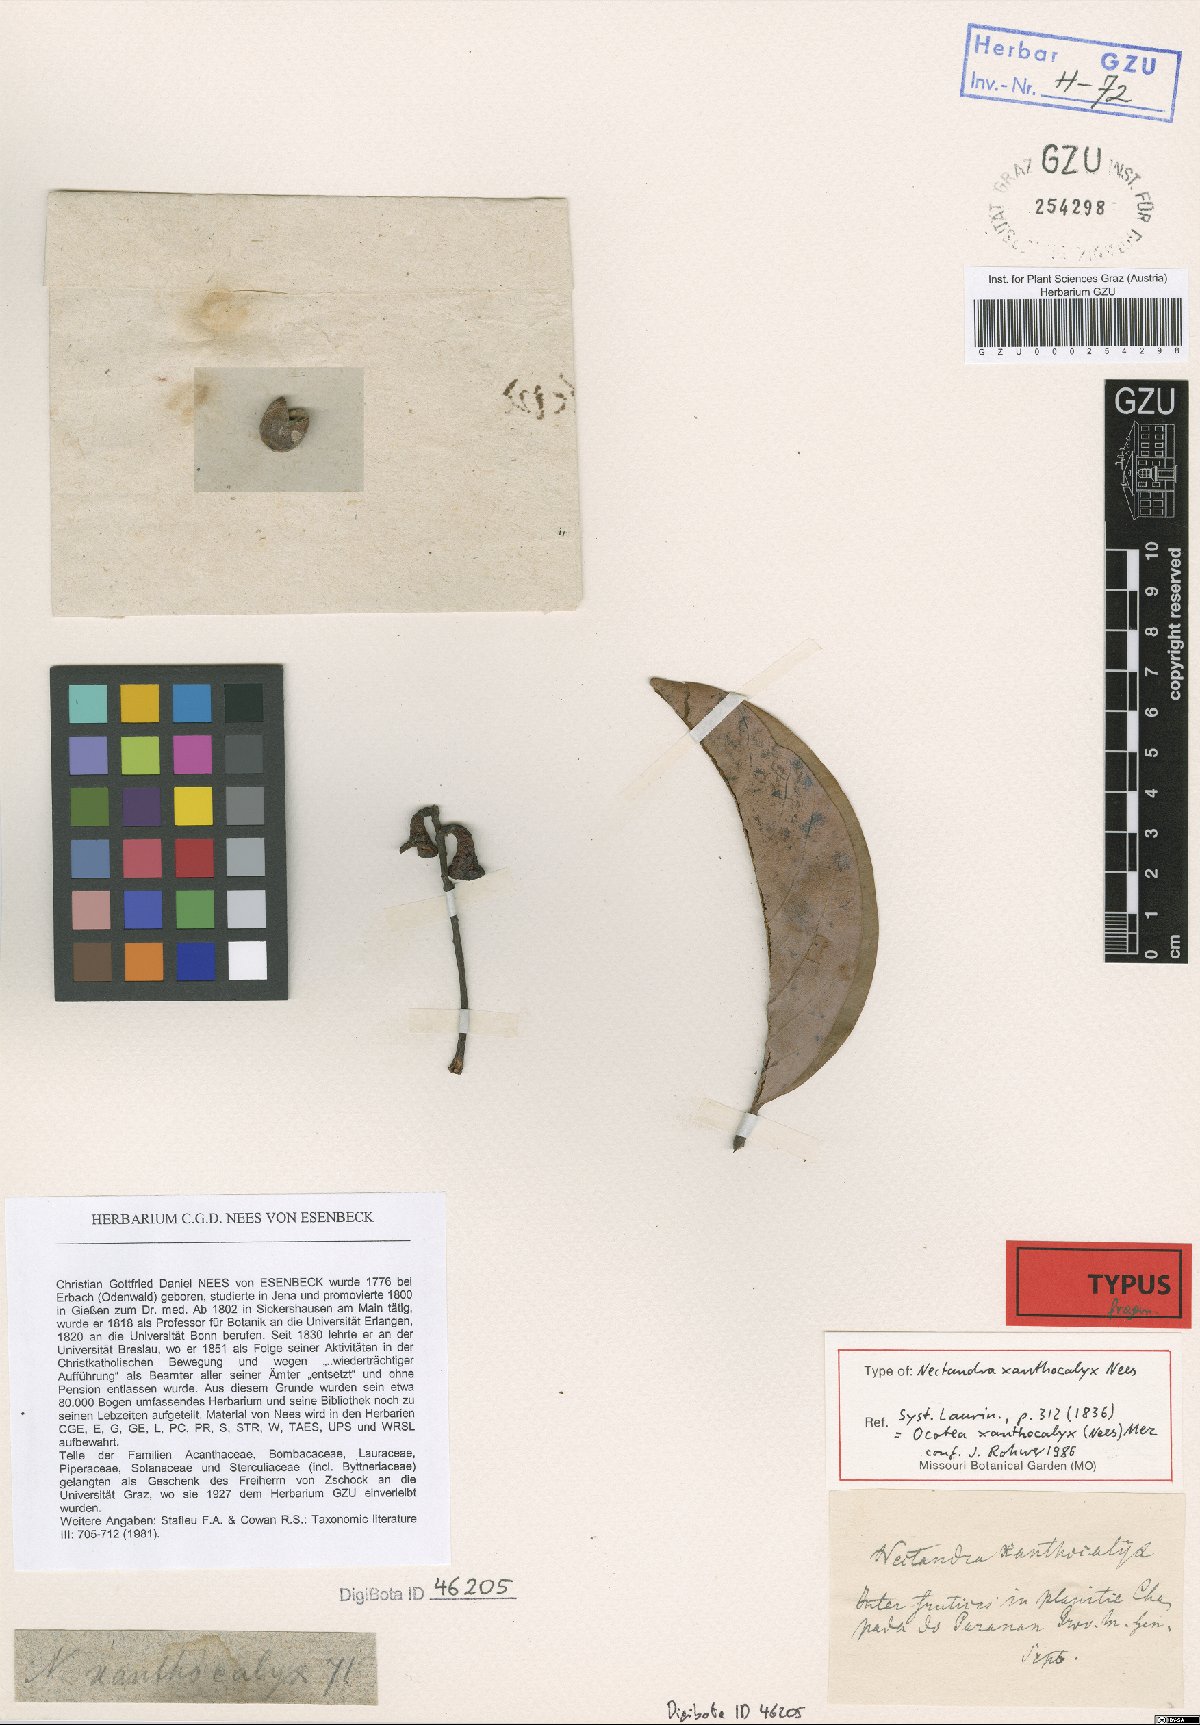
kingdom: Plantae
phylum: Tracheophyta
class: Magnoliopsida
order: Laurales
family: Lauraceae
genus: Ocotea
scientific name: Ocotea xanthocalyx
